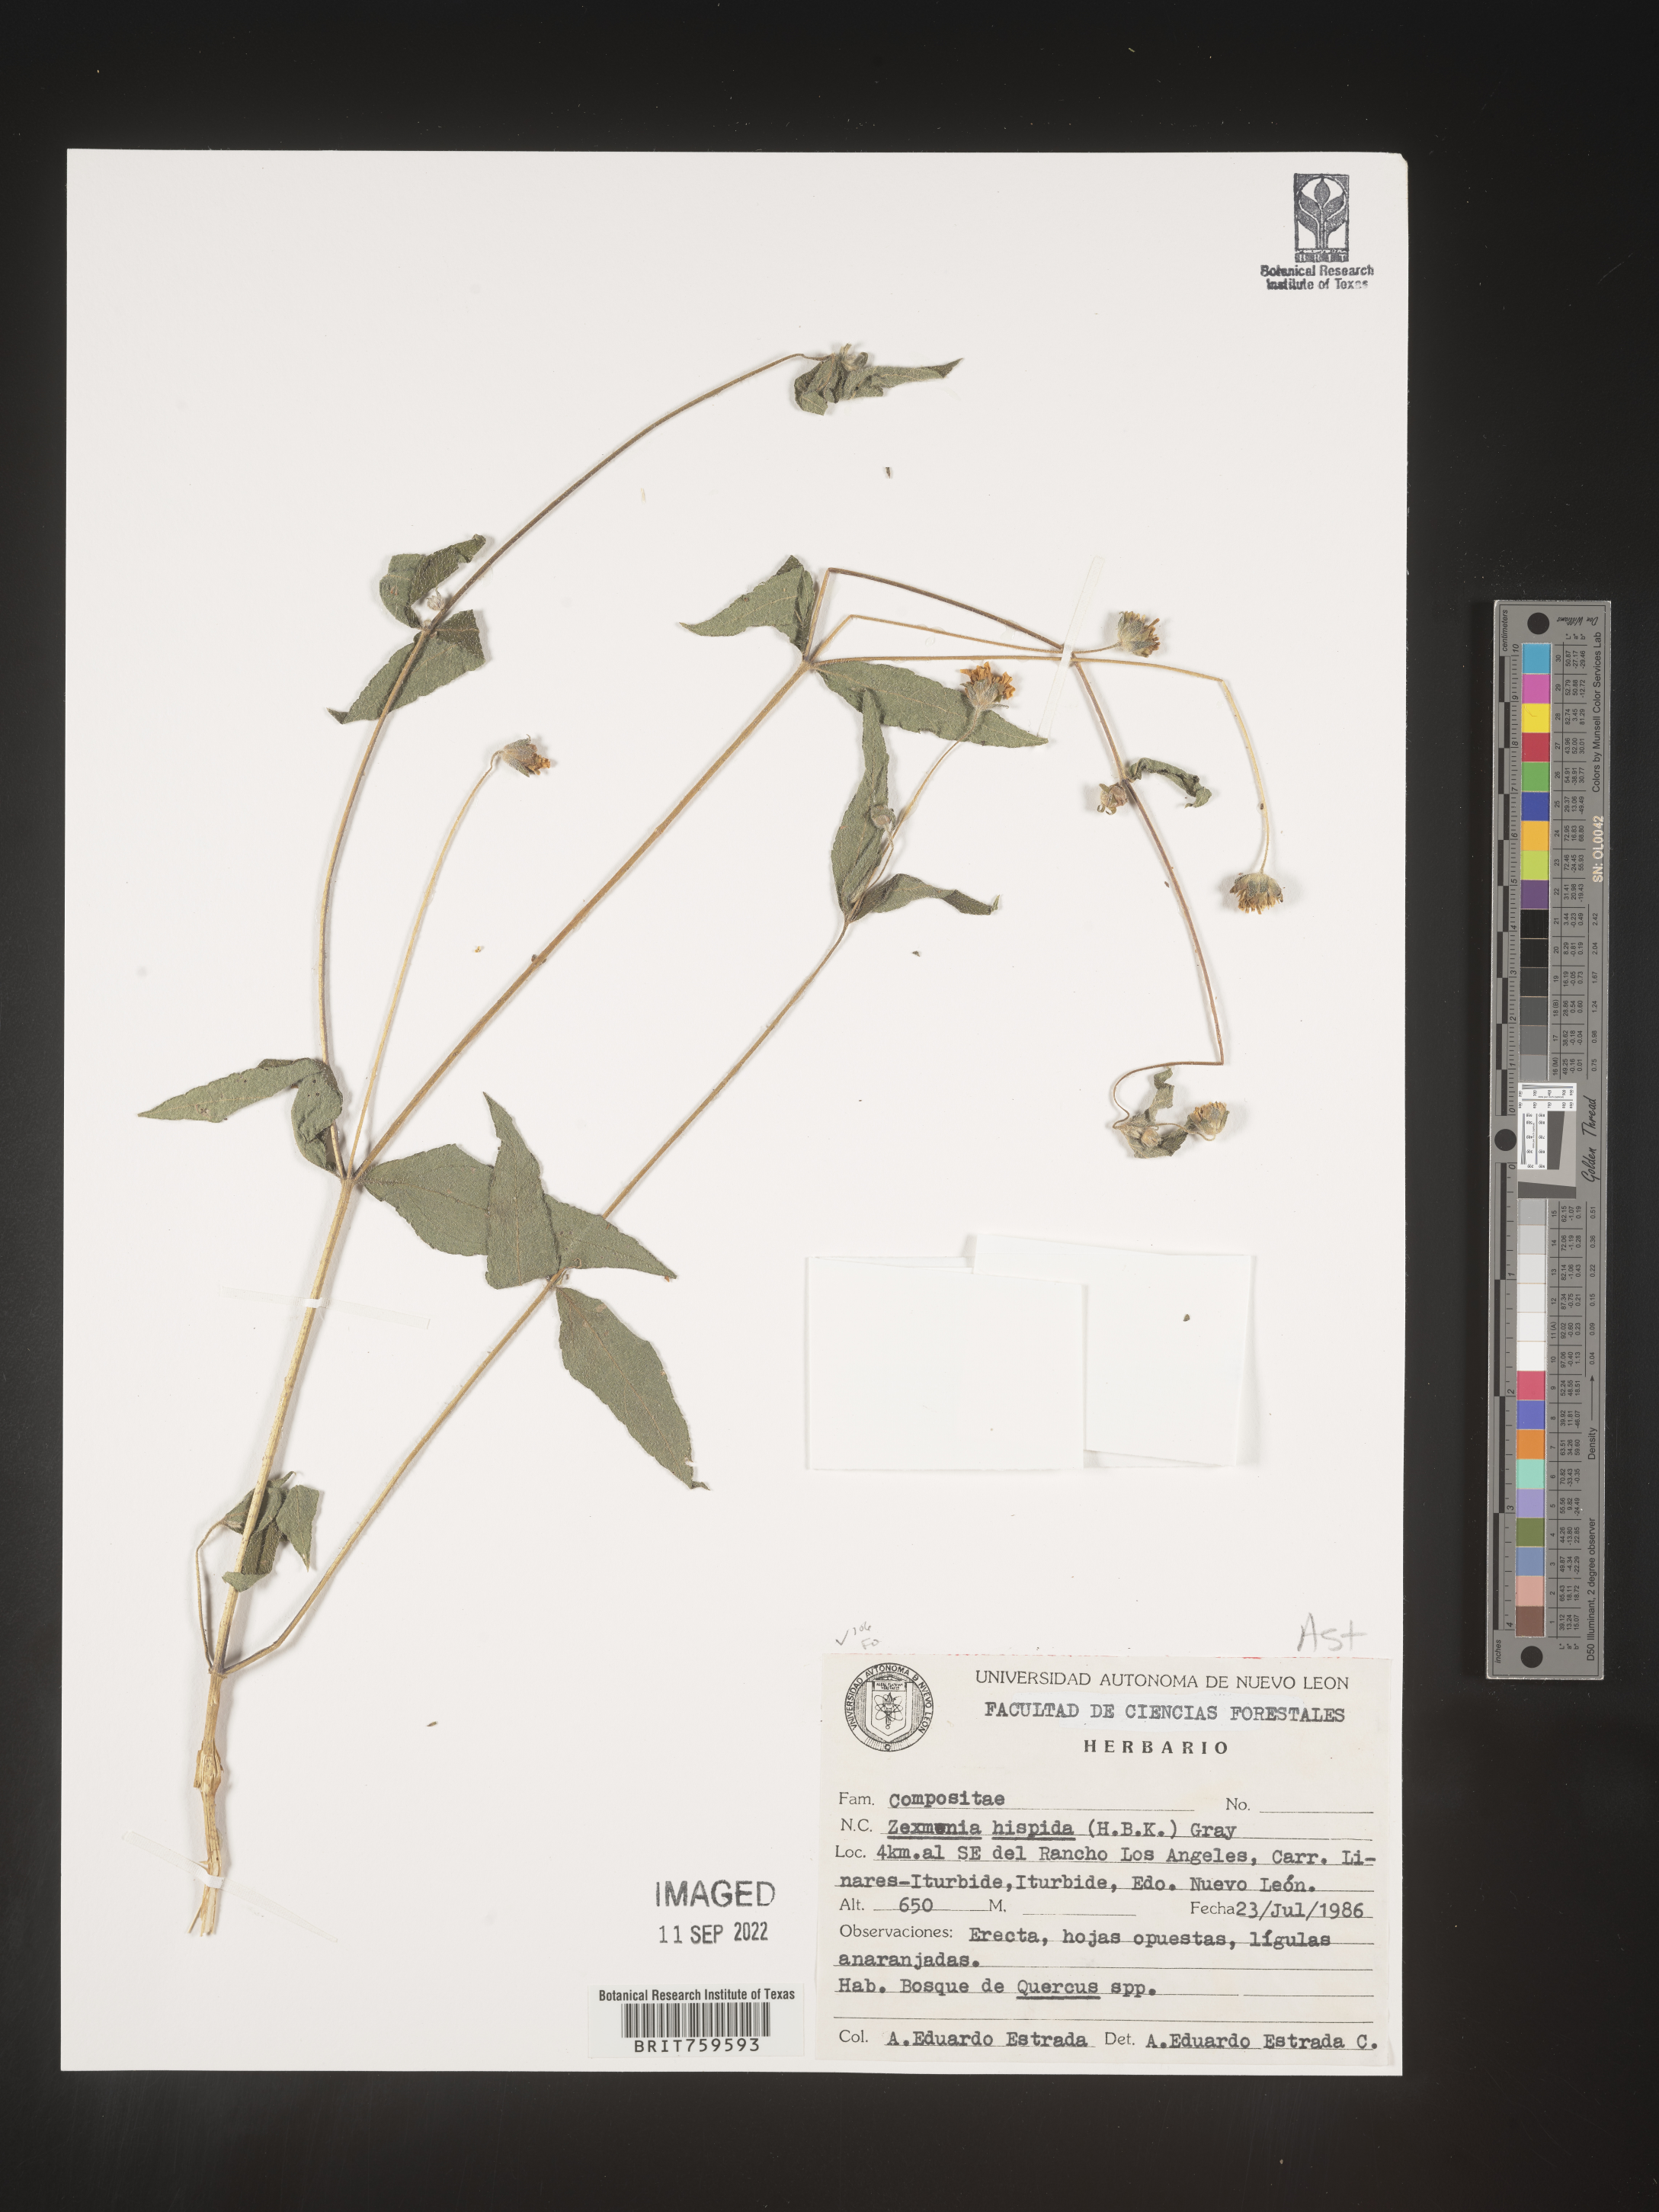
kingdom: Plantae
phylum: Tracheophyta
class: Magnoliopsida
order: Asterales
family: Asteraceae
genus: Zexmenia
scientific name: Zexmenia
